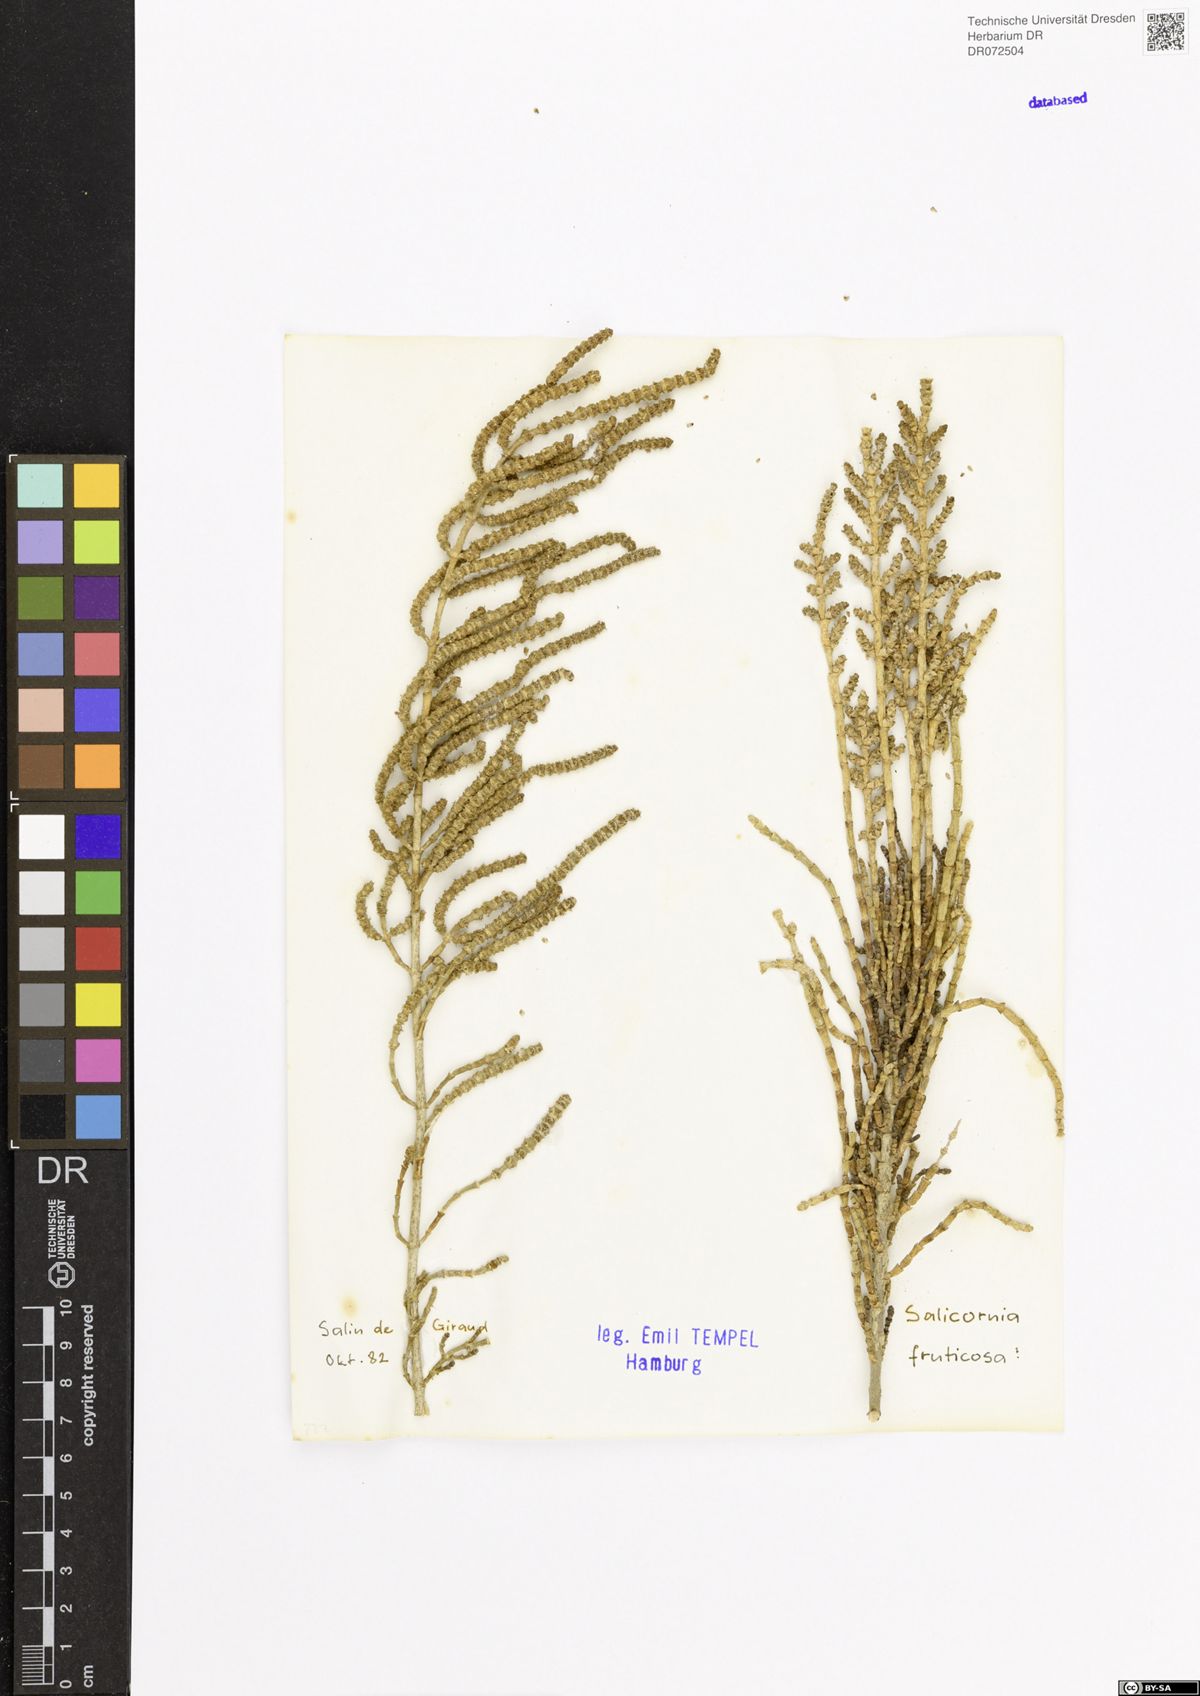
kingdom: Plantae
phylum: Tracheophyta
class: Magnoliopsida
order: Caryophyllales
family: Amaranthaceae
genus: Salicornia
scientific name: Salicornia fruticosa
